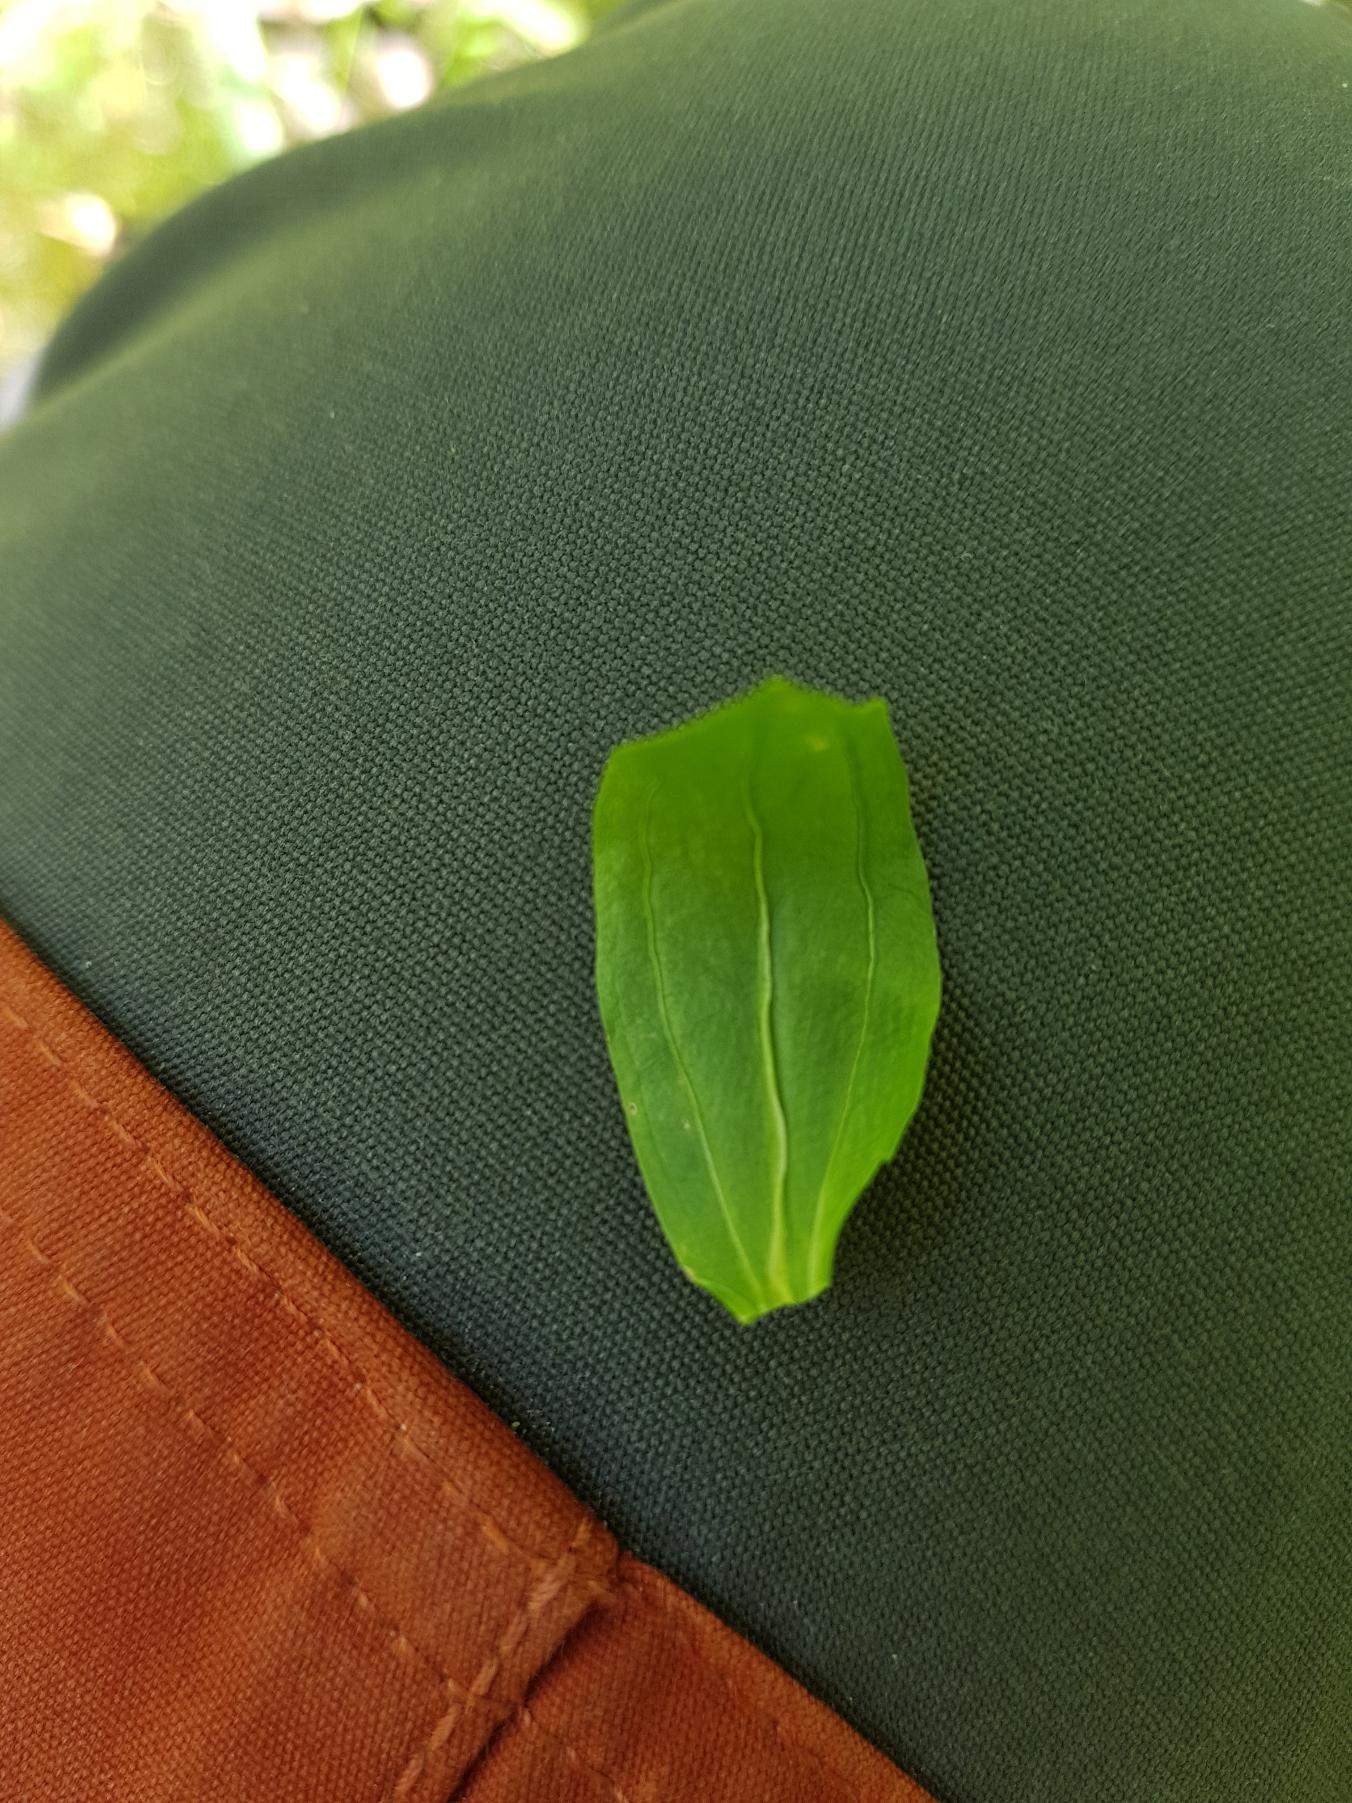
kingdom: Plantae
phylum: Tracheophyta
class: Magnoliopsida
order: Gentianales
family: Gentianaceae
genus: Centaurium
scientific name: Centaurium erythraea
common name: Mark-tusindgylden
